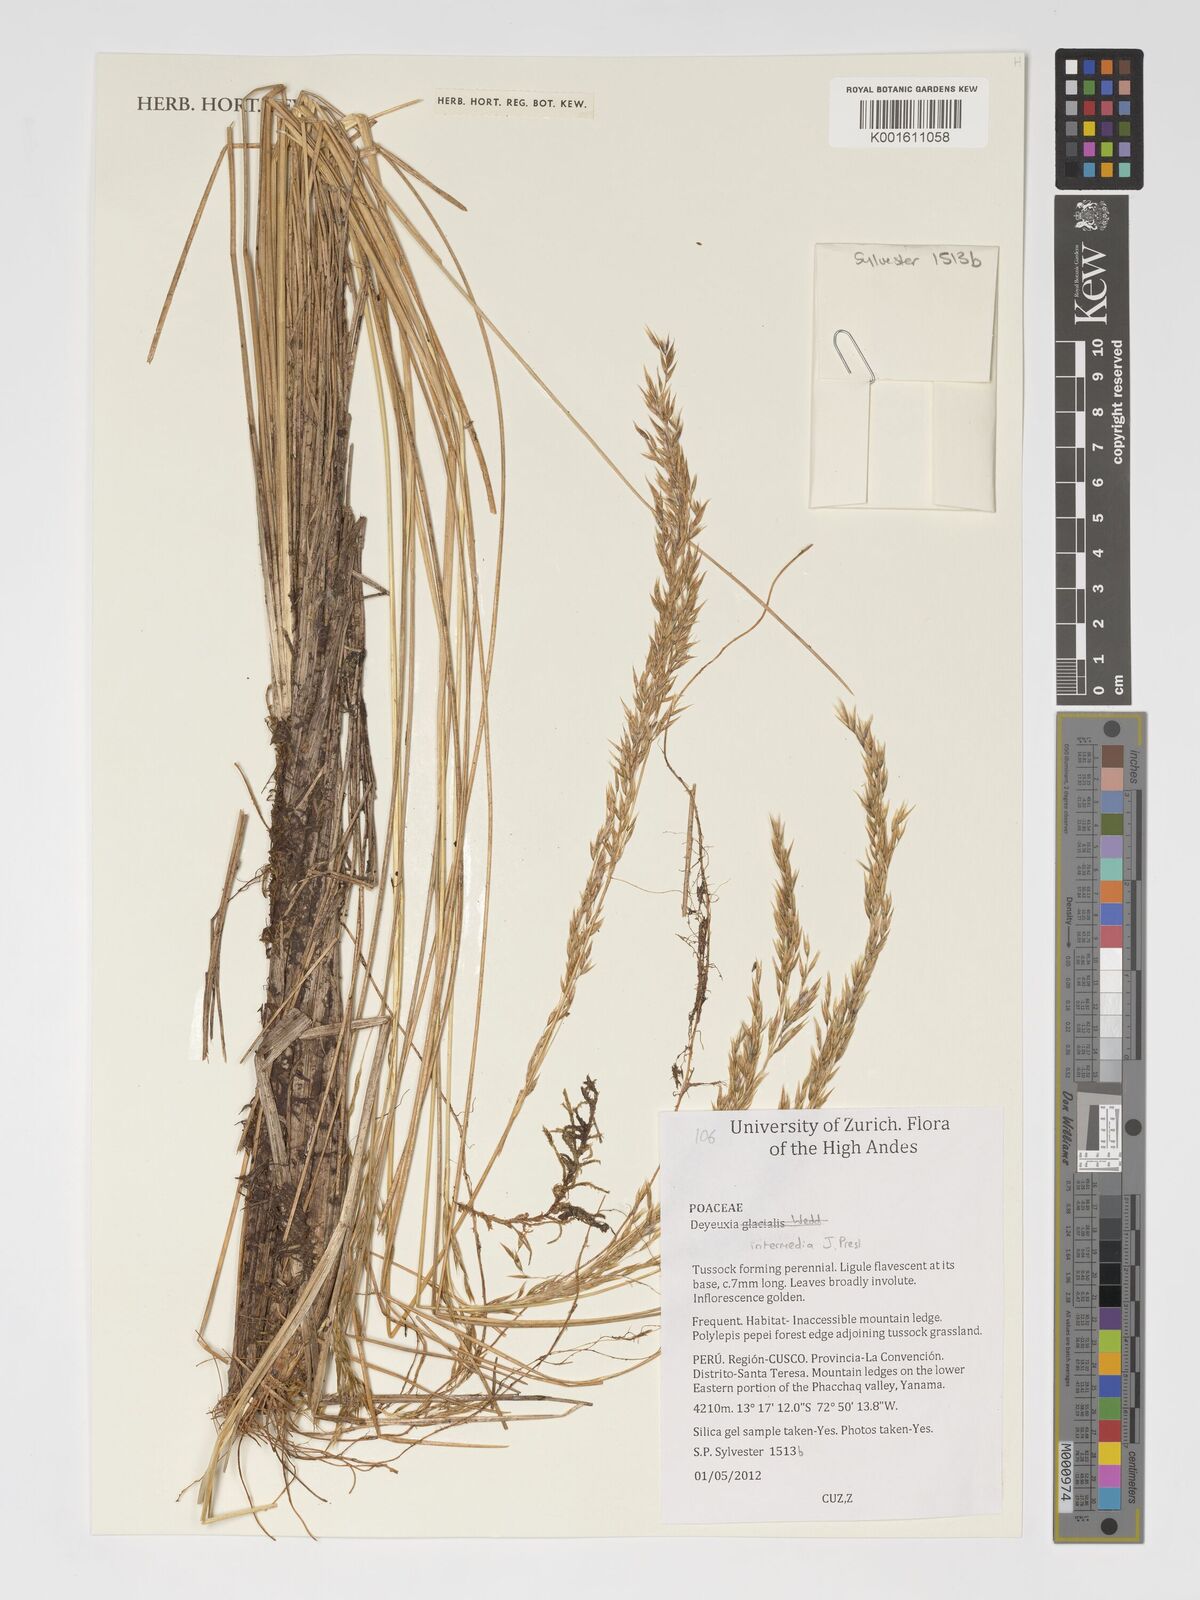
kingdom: Plantae
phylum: Tracheophyta
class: Liliopsida
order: Poales
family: Poaceae
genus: Cinnagrostis
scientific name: Cinnagrostis intermedia
